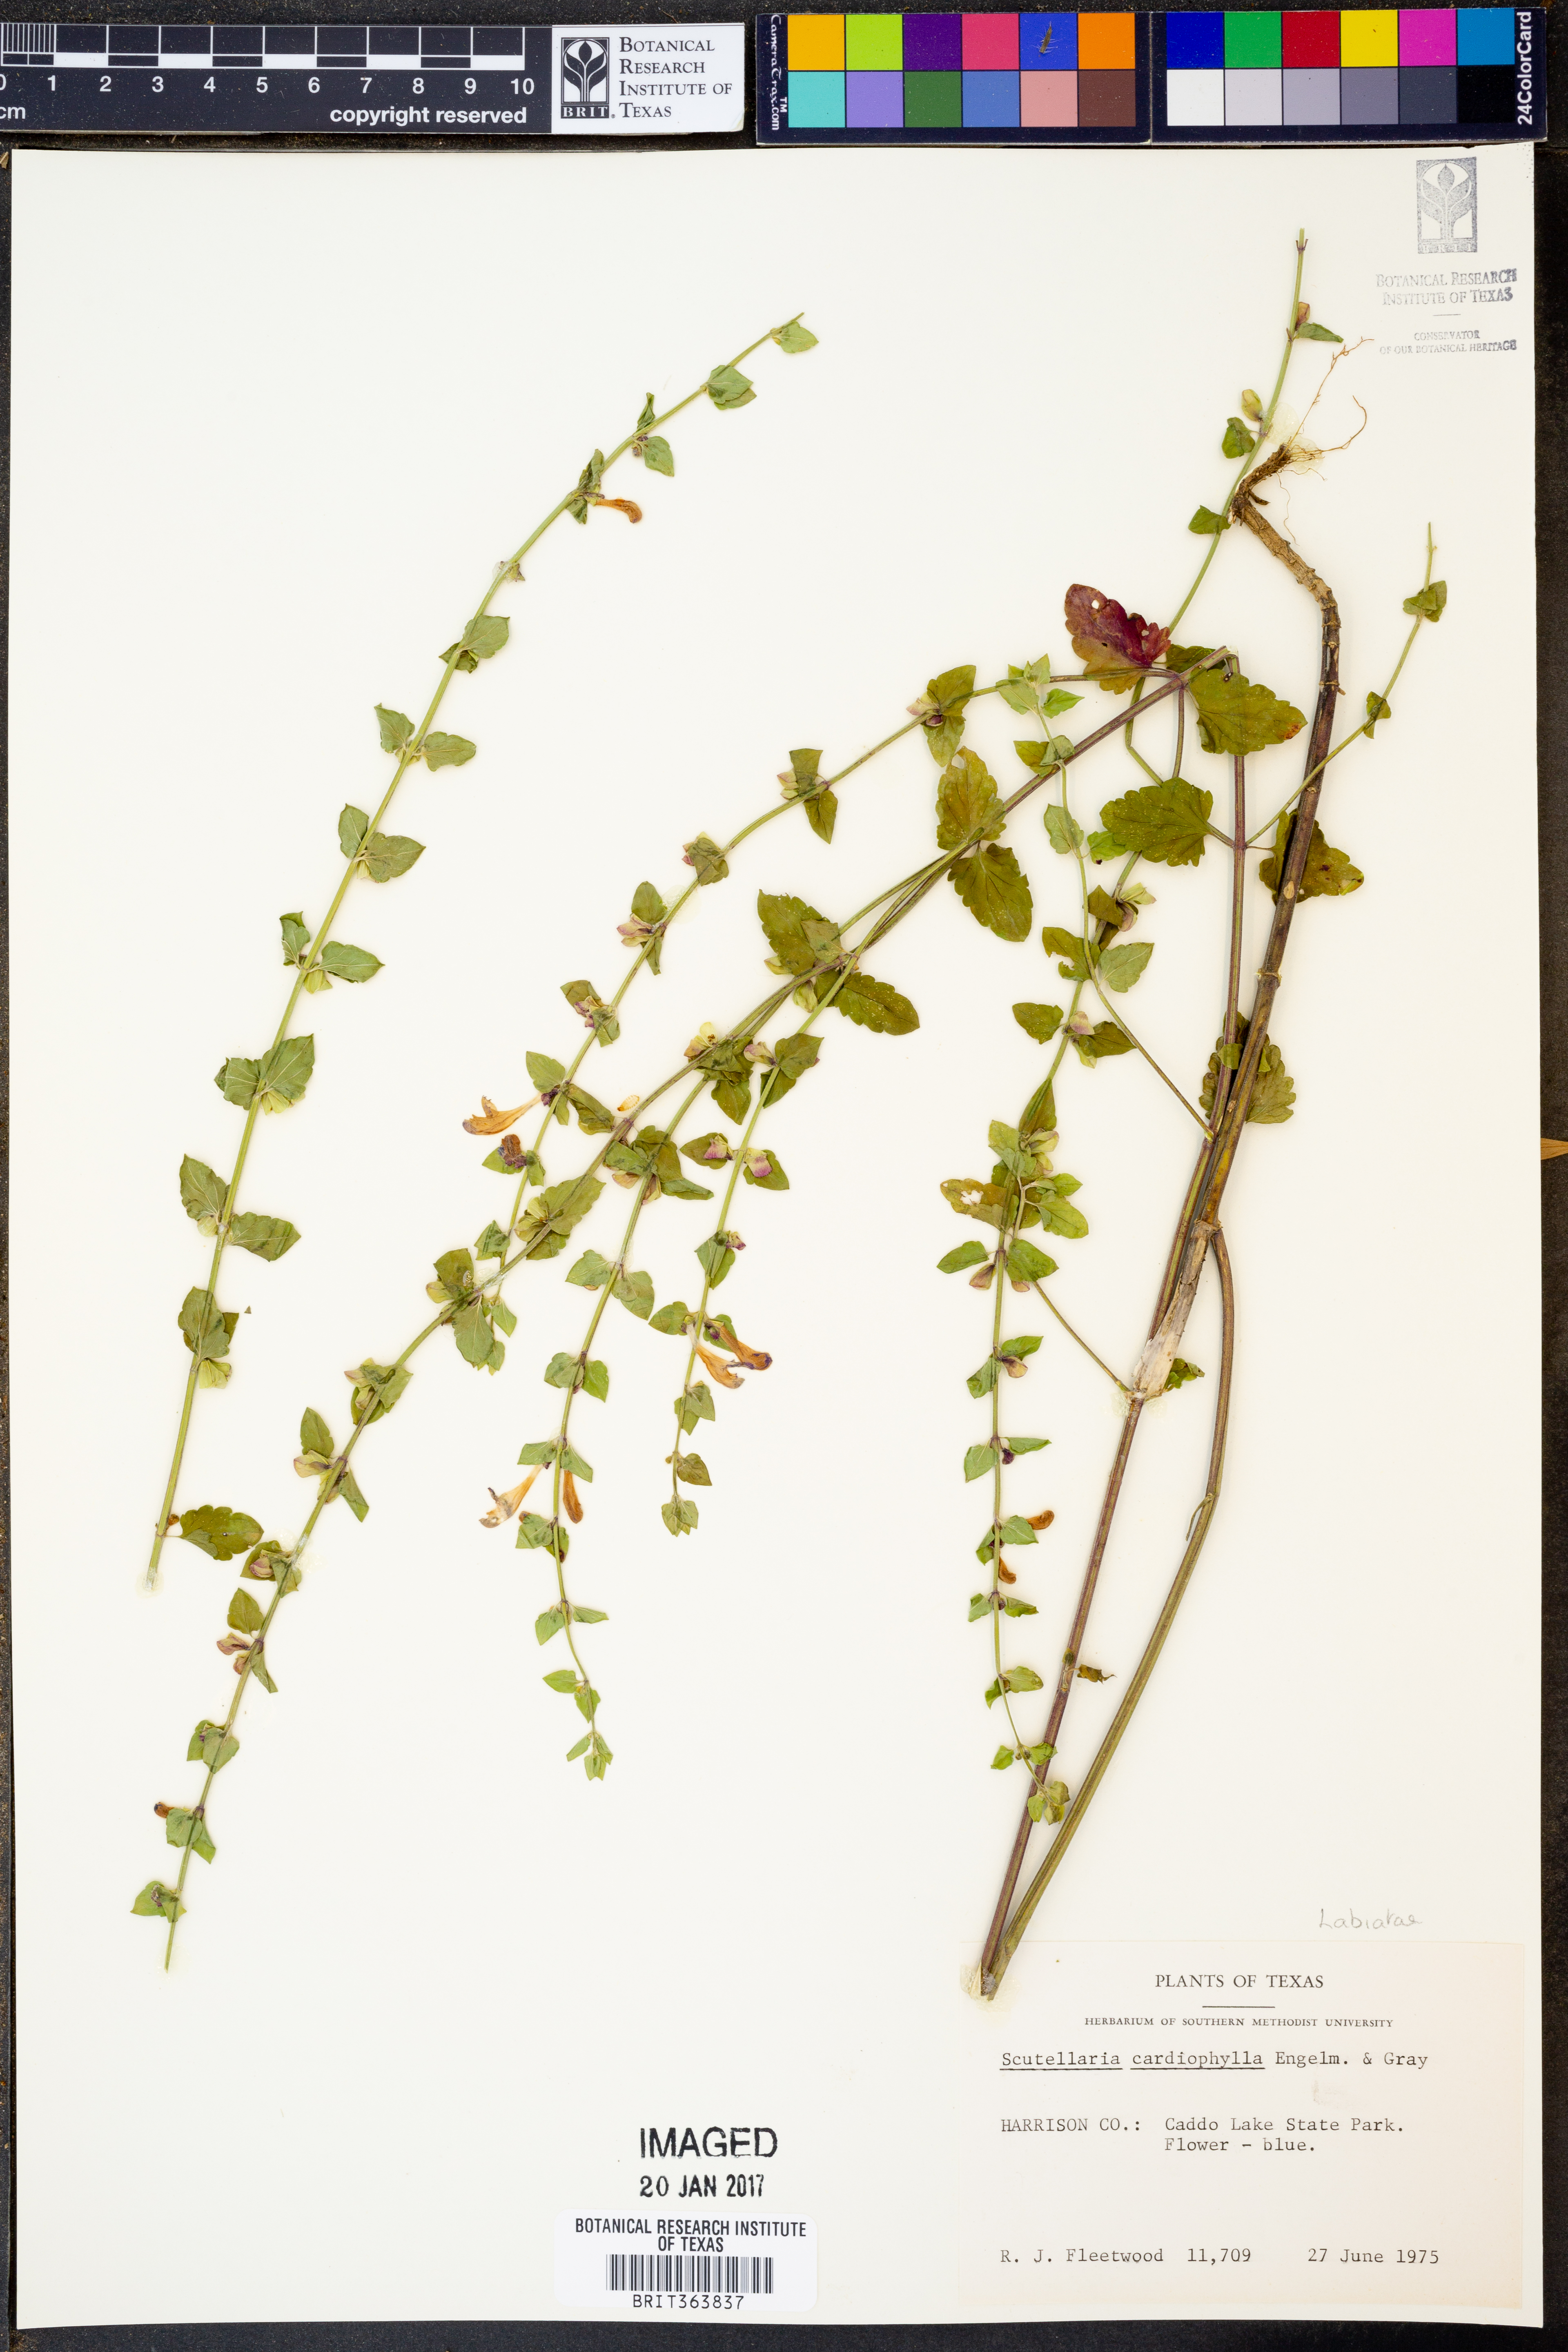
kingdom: Plantae
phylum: Tracheophyta
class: Magnoliopsida
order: Lamiales
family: Lamiaceae
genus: Scutellaria
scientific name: Scutellaria cardiophylla
